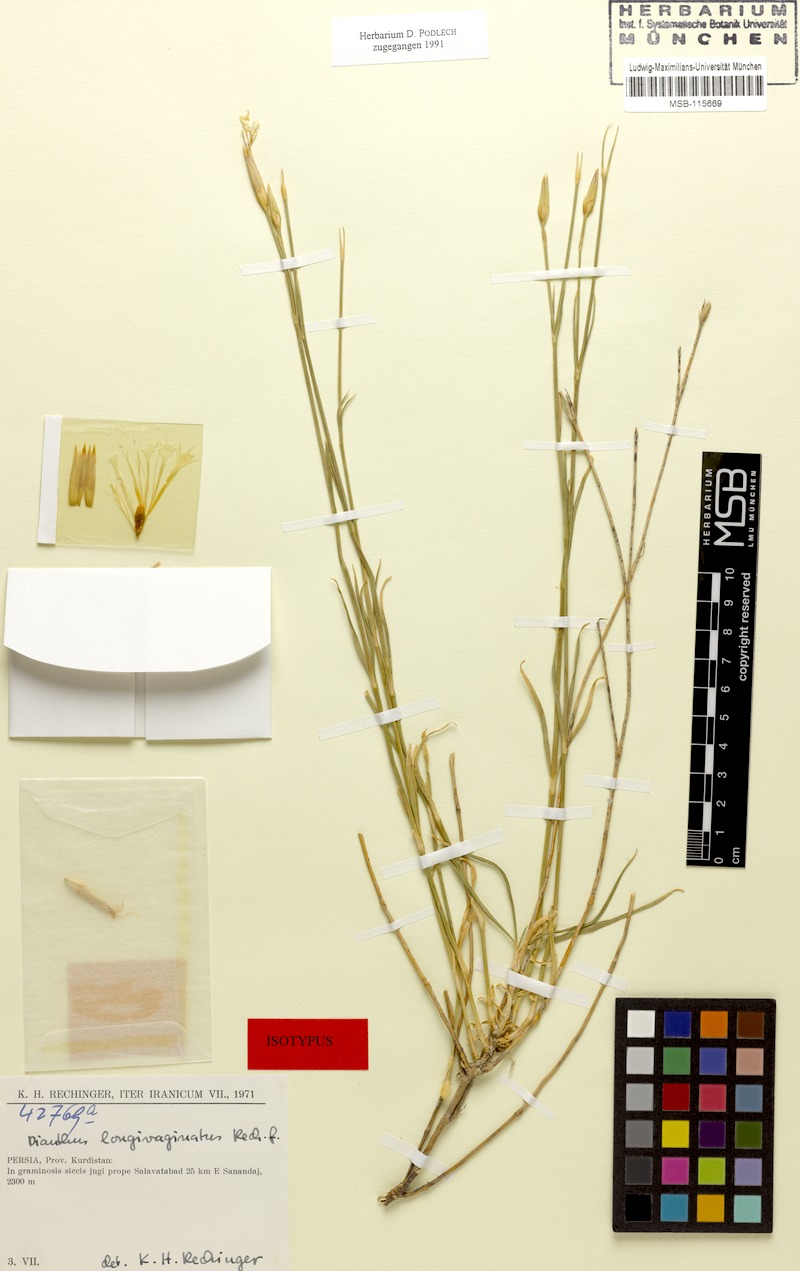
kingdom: Plantae
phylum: Tracheophyta
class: Magnoliopsida
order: Caryophyllales
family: Caryophyllaceae
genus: Dianthus
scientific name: Dianthus longivaginatus
